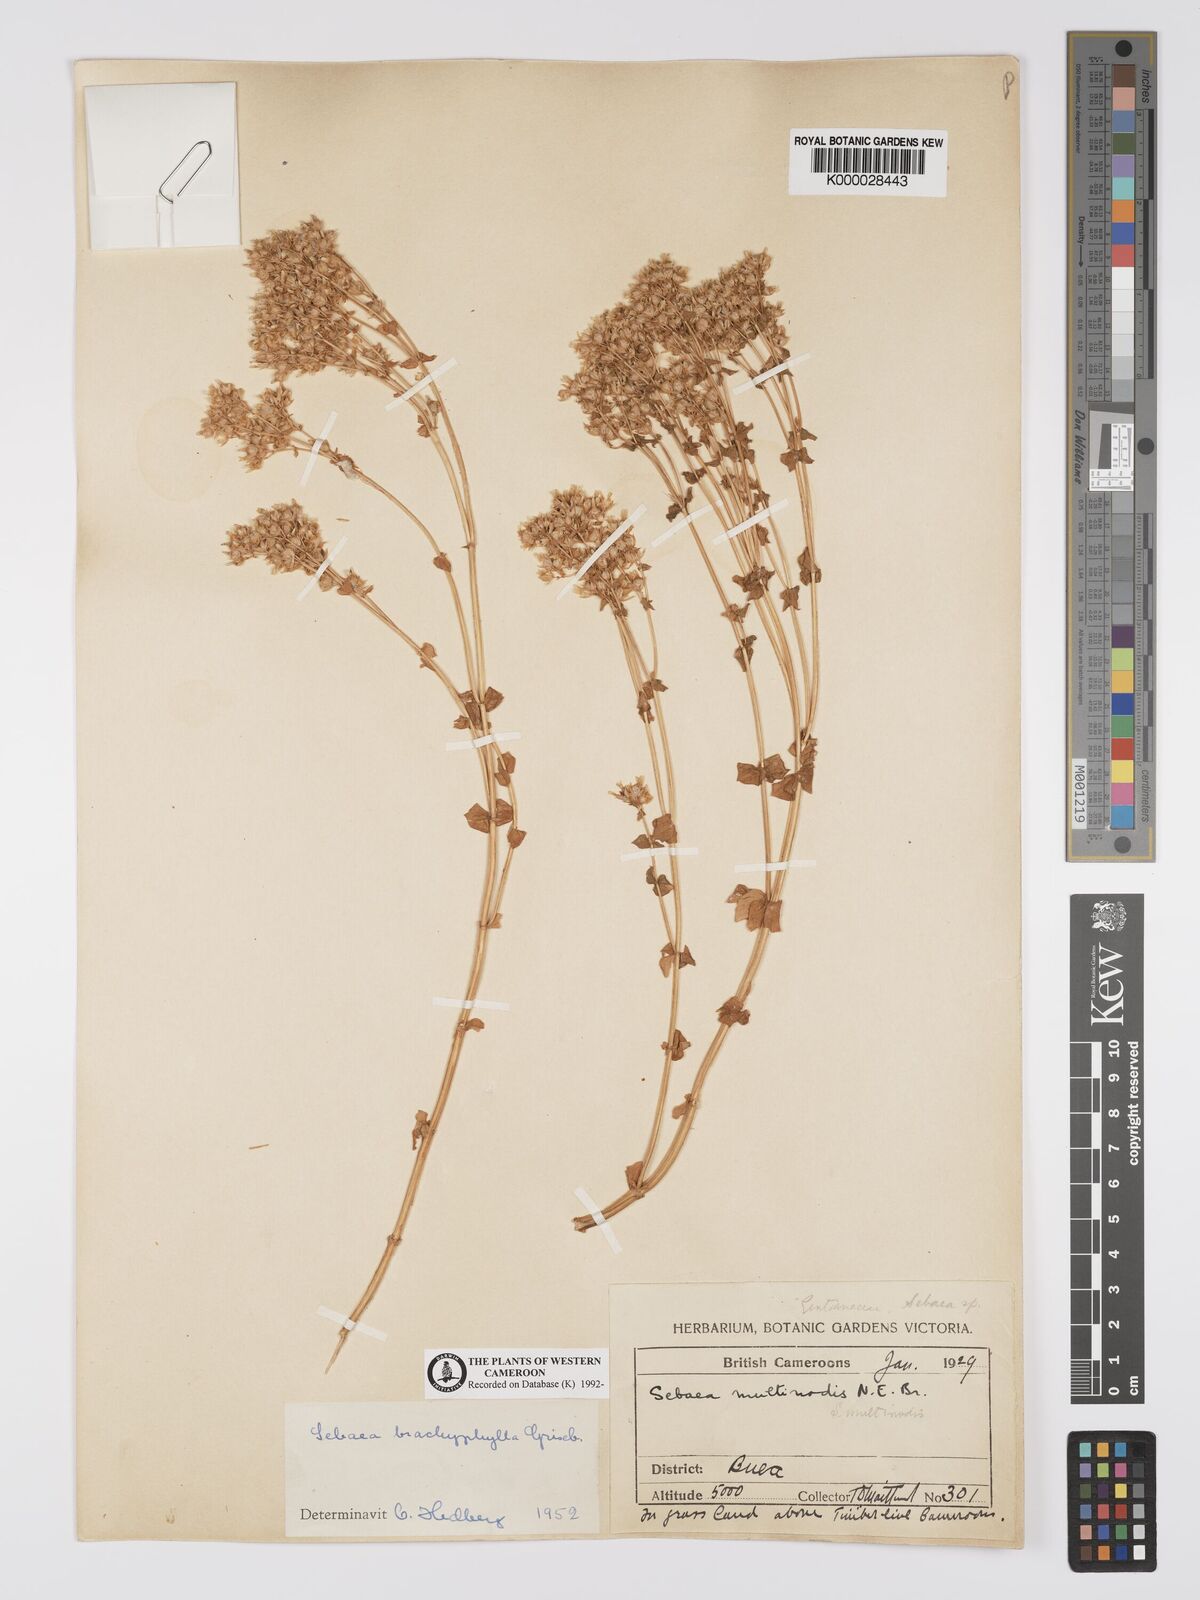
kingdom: Plantae
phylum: Tracheophyta
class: Magnoliopsida
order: Gentianales
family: Gentianaceae
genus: Sebaea
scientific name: Sebaea brachyphylla
